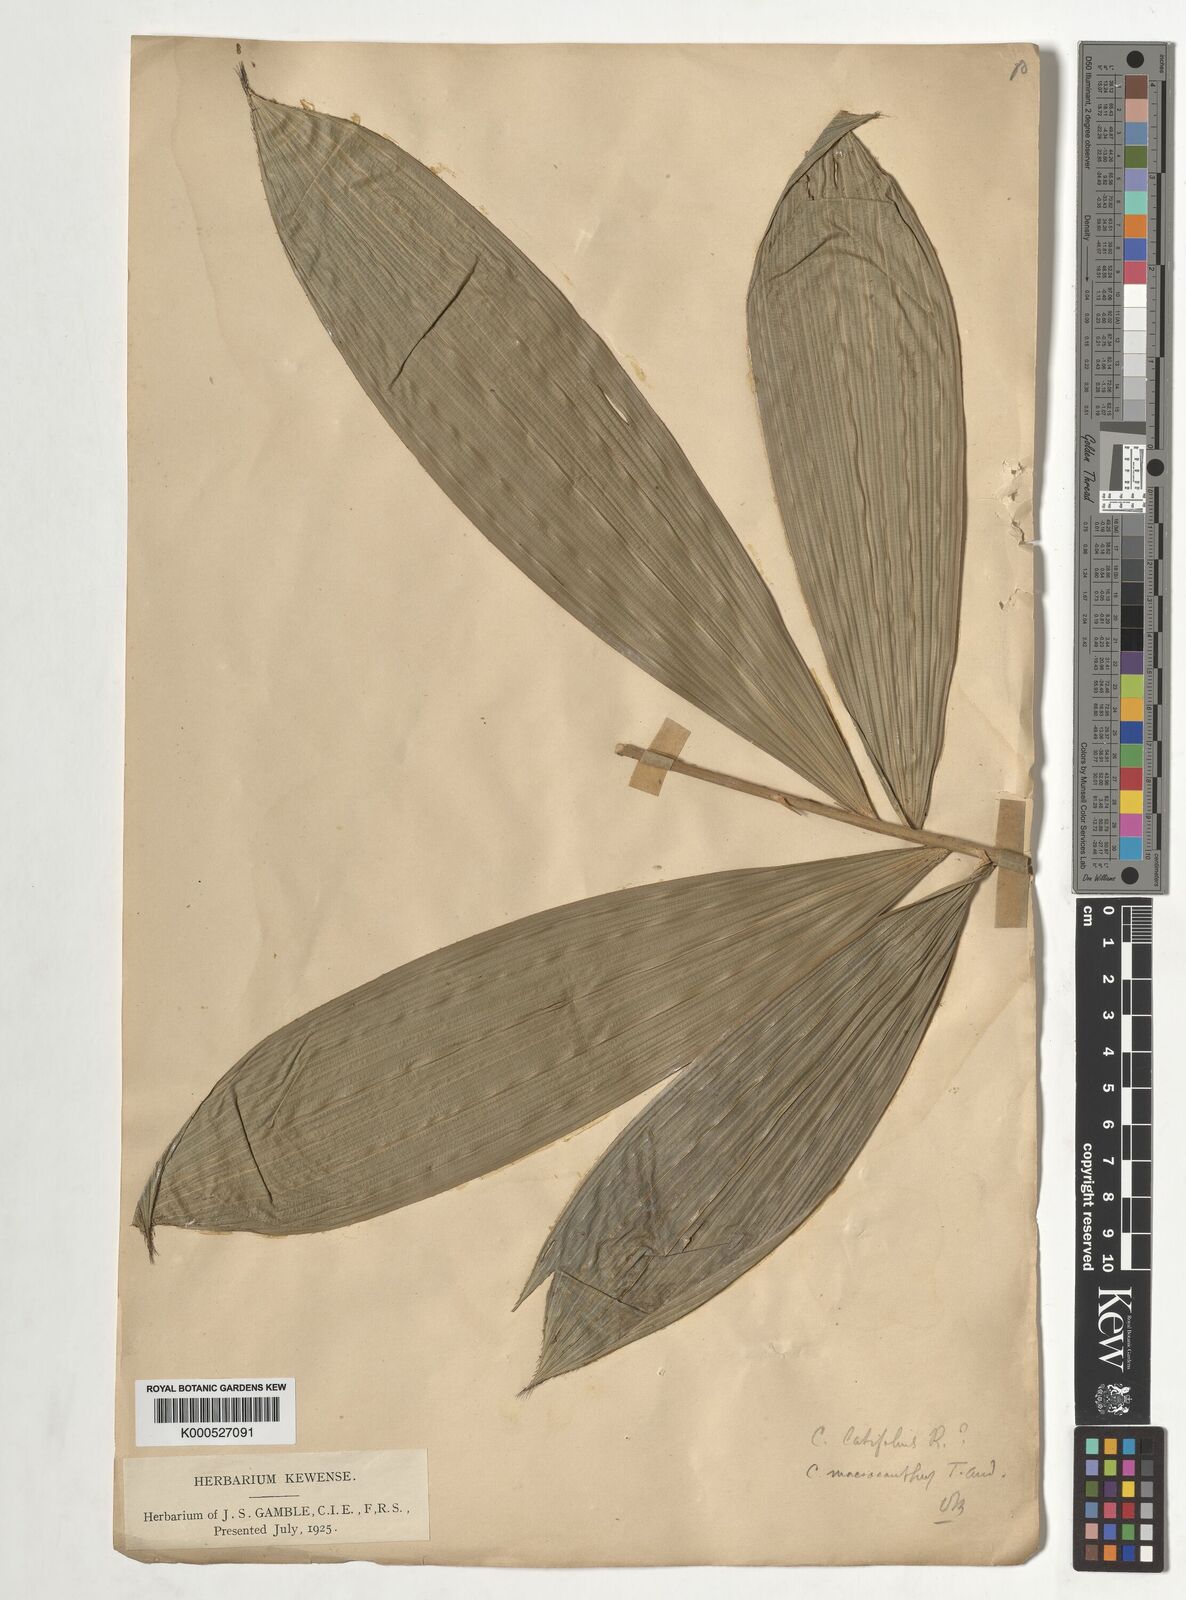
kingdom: Plantae
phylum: Tracheophyta
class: Liliopsida
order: Arecales
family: Arecaceae
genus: Calamus
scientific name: Calamus latifolius
